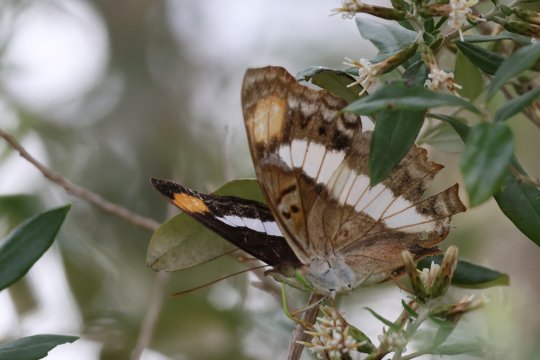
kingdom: Animalia
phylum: Arthropoda
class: Insecta
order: Lepidoptera
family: Nymphalidae
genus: Doxocopa
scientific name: Doxocopa pavon
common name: Pavon Emperor
